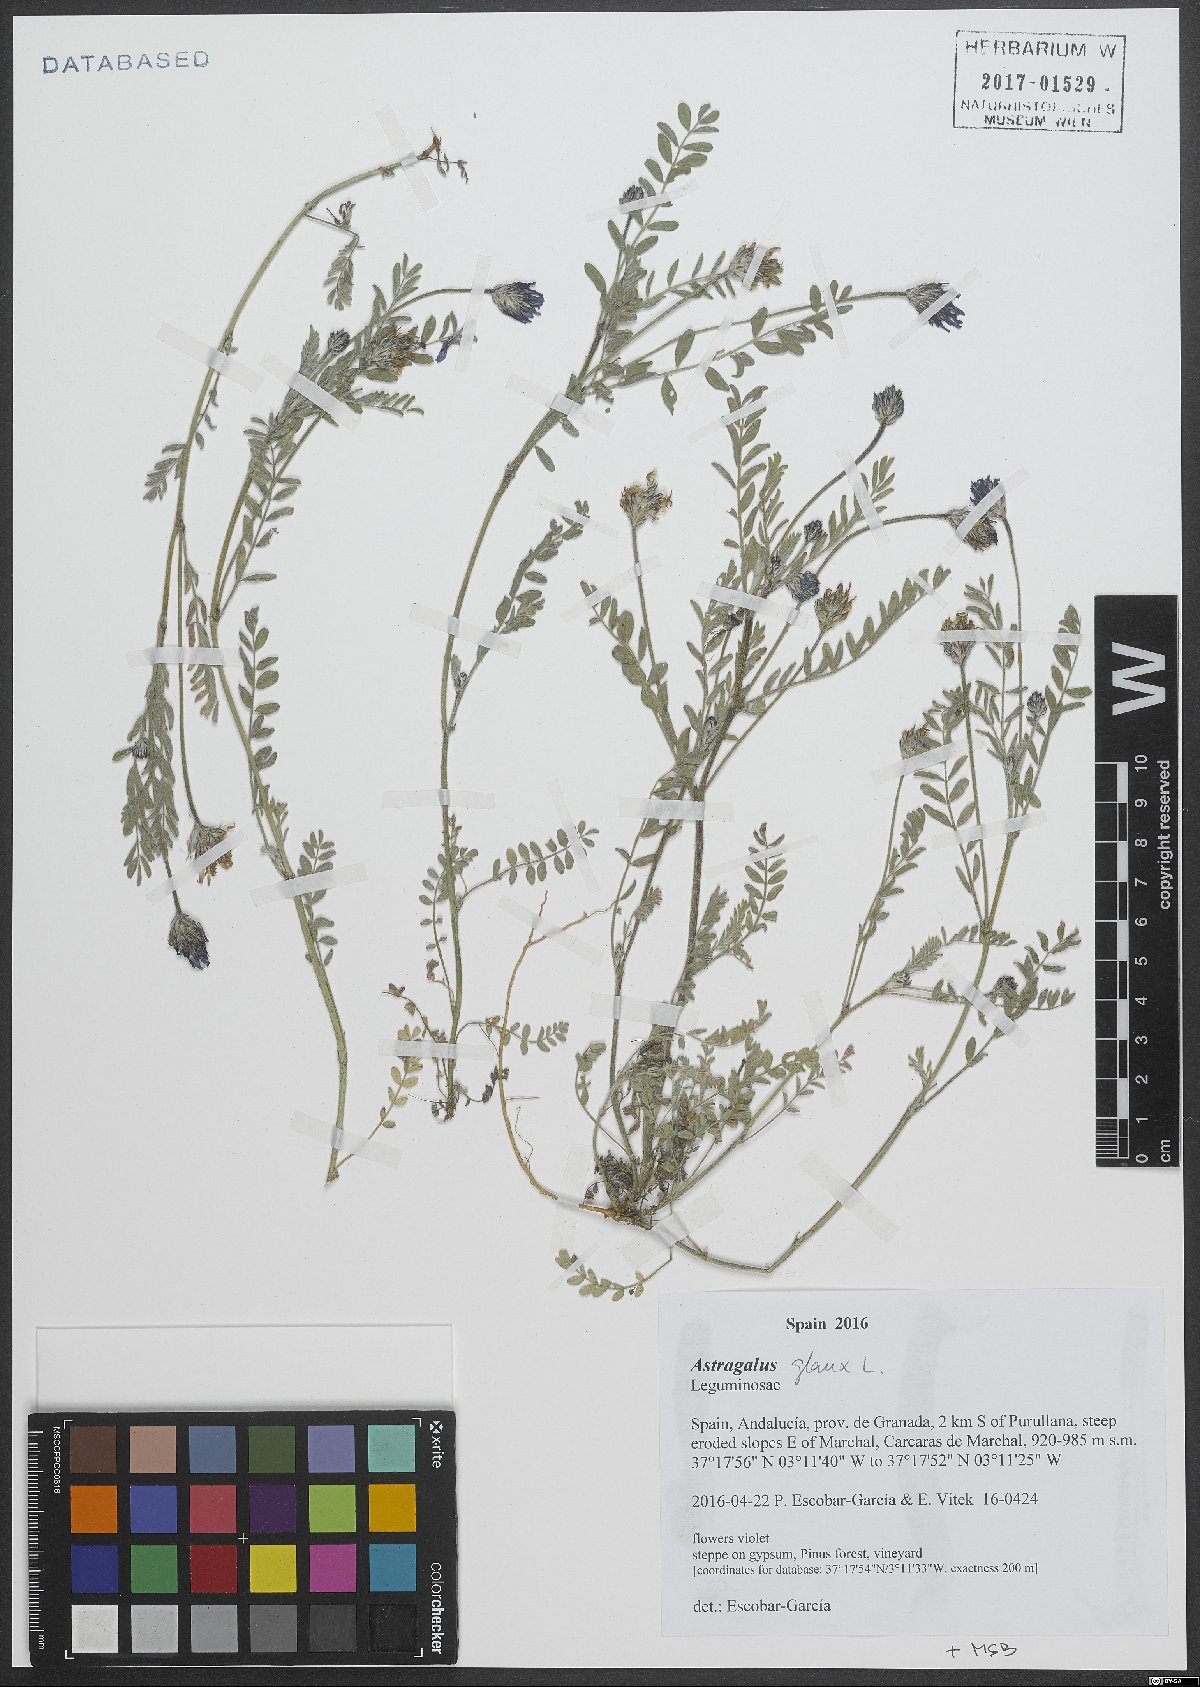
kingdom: Plantae
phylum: Tracheophyta
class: Magnoliopsida
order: Fabales
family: Fabaceae
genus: Astragalus
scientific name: Astragalus glaux
